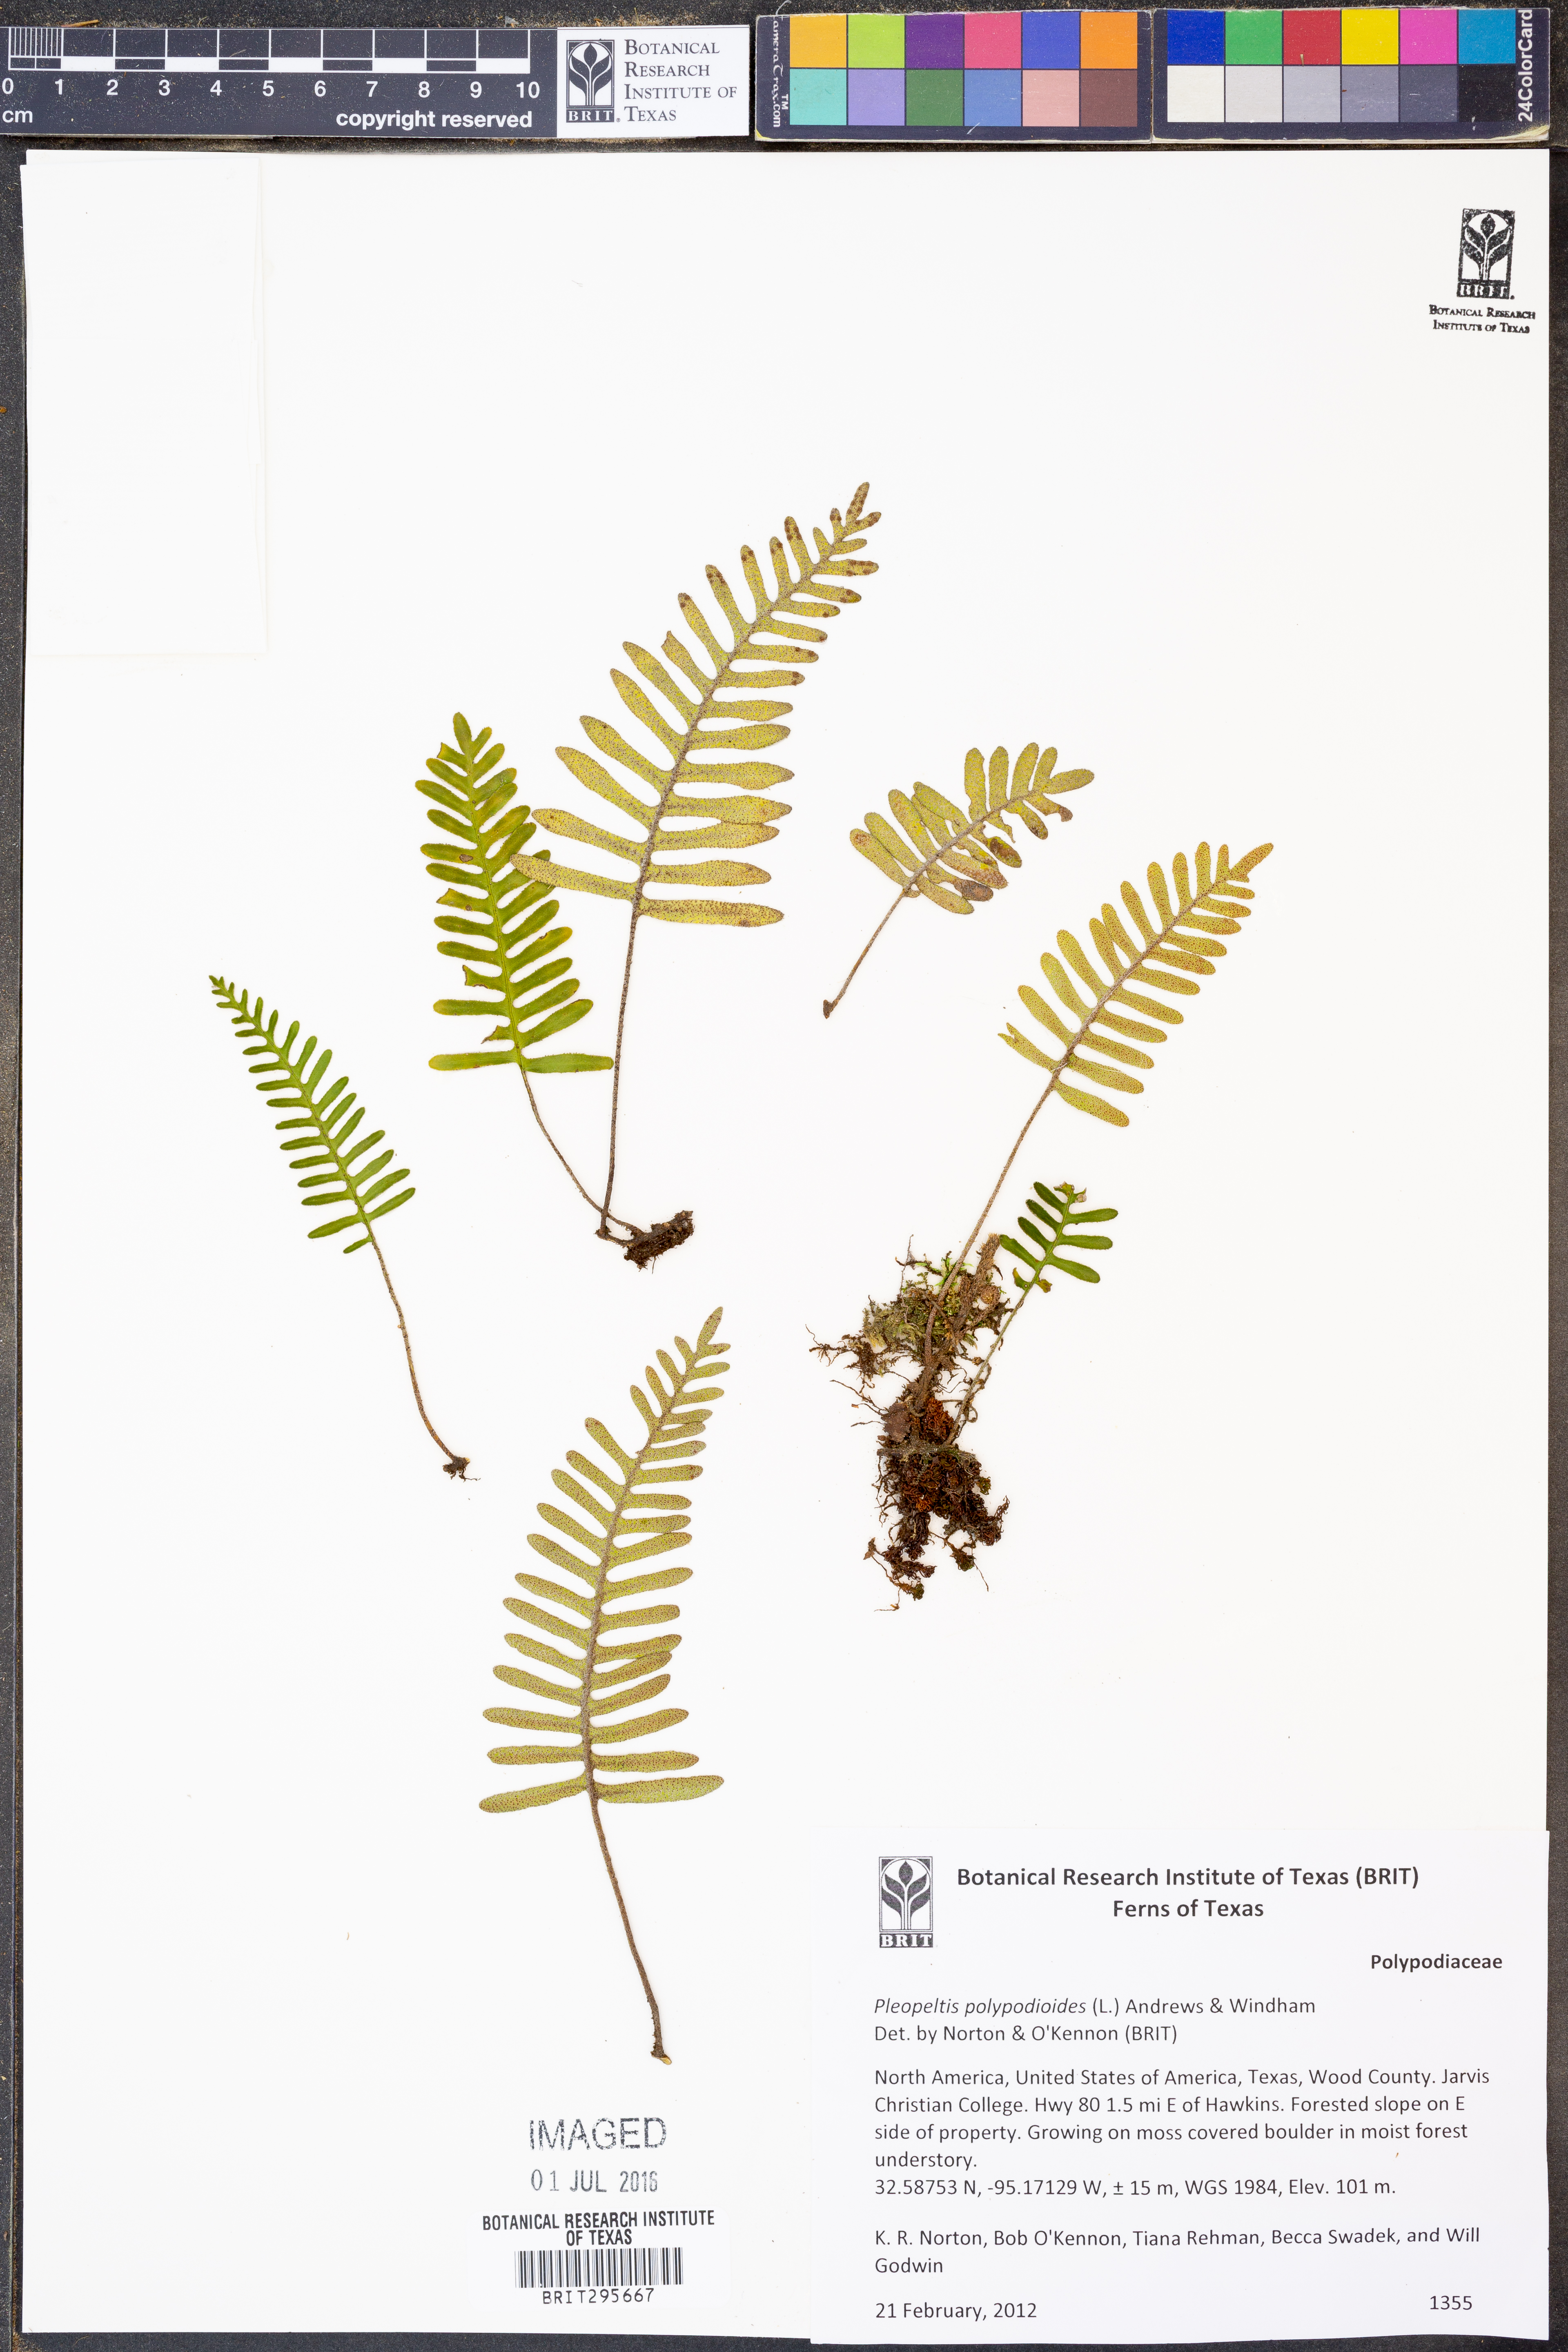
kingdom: Plantae
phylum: Tracheophyta
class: Polypodiopsida
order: Polypodiales
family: Polypodiaceae
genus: Pleopeltis
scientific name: Pleopeltis polypodioides
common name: Resurrection fern
